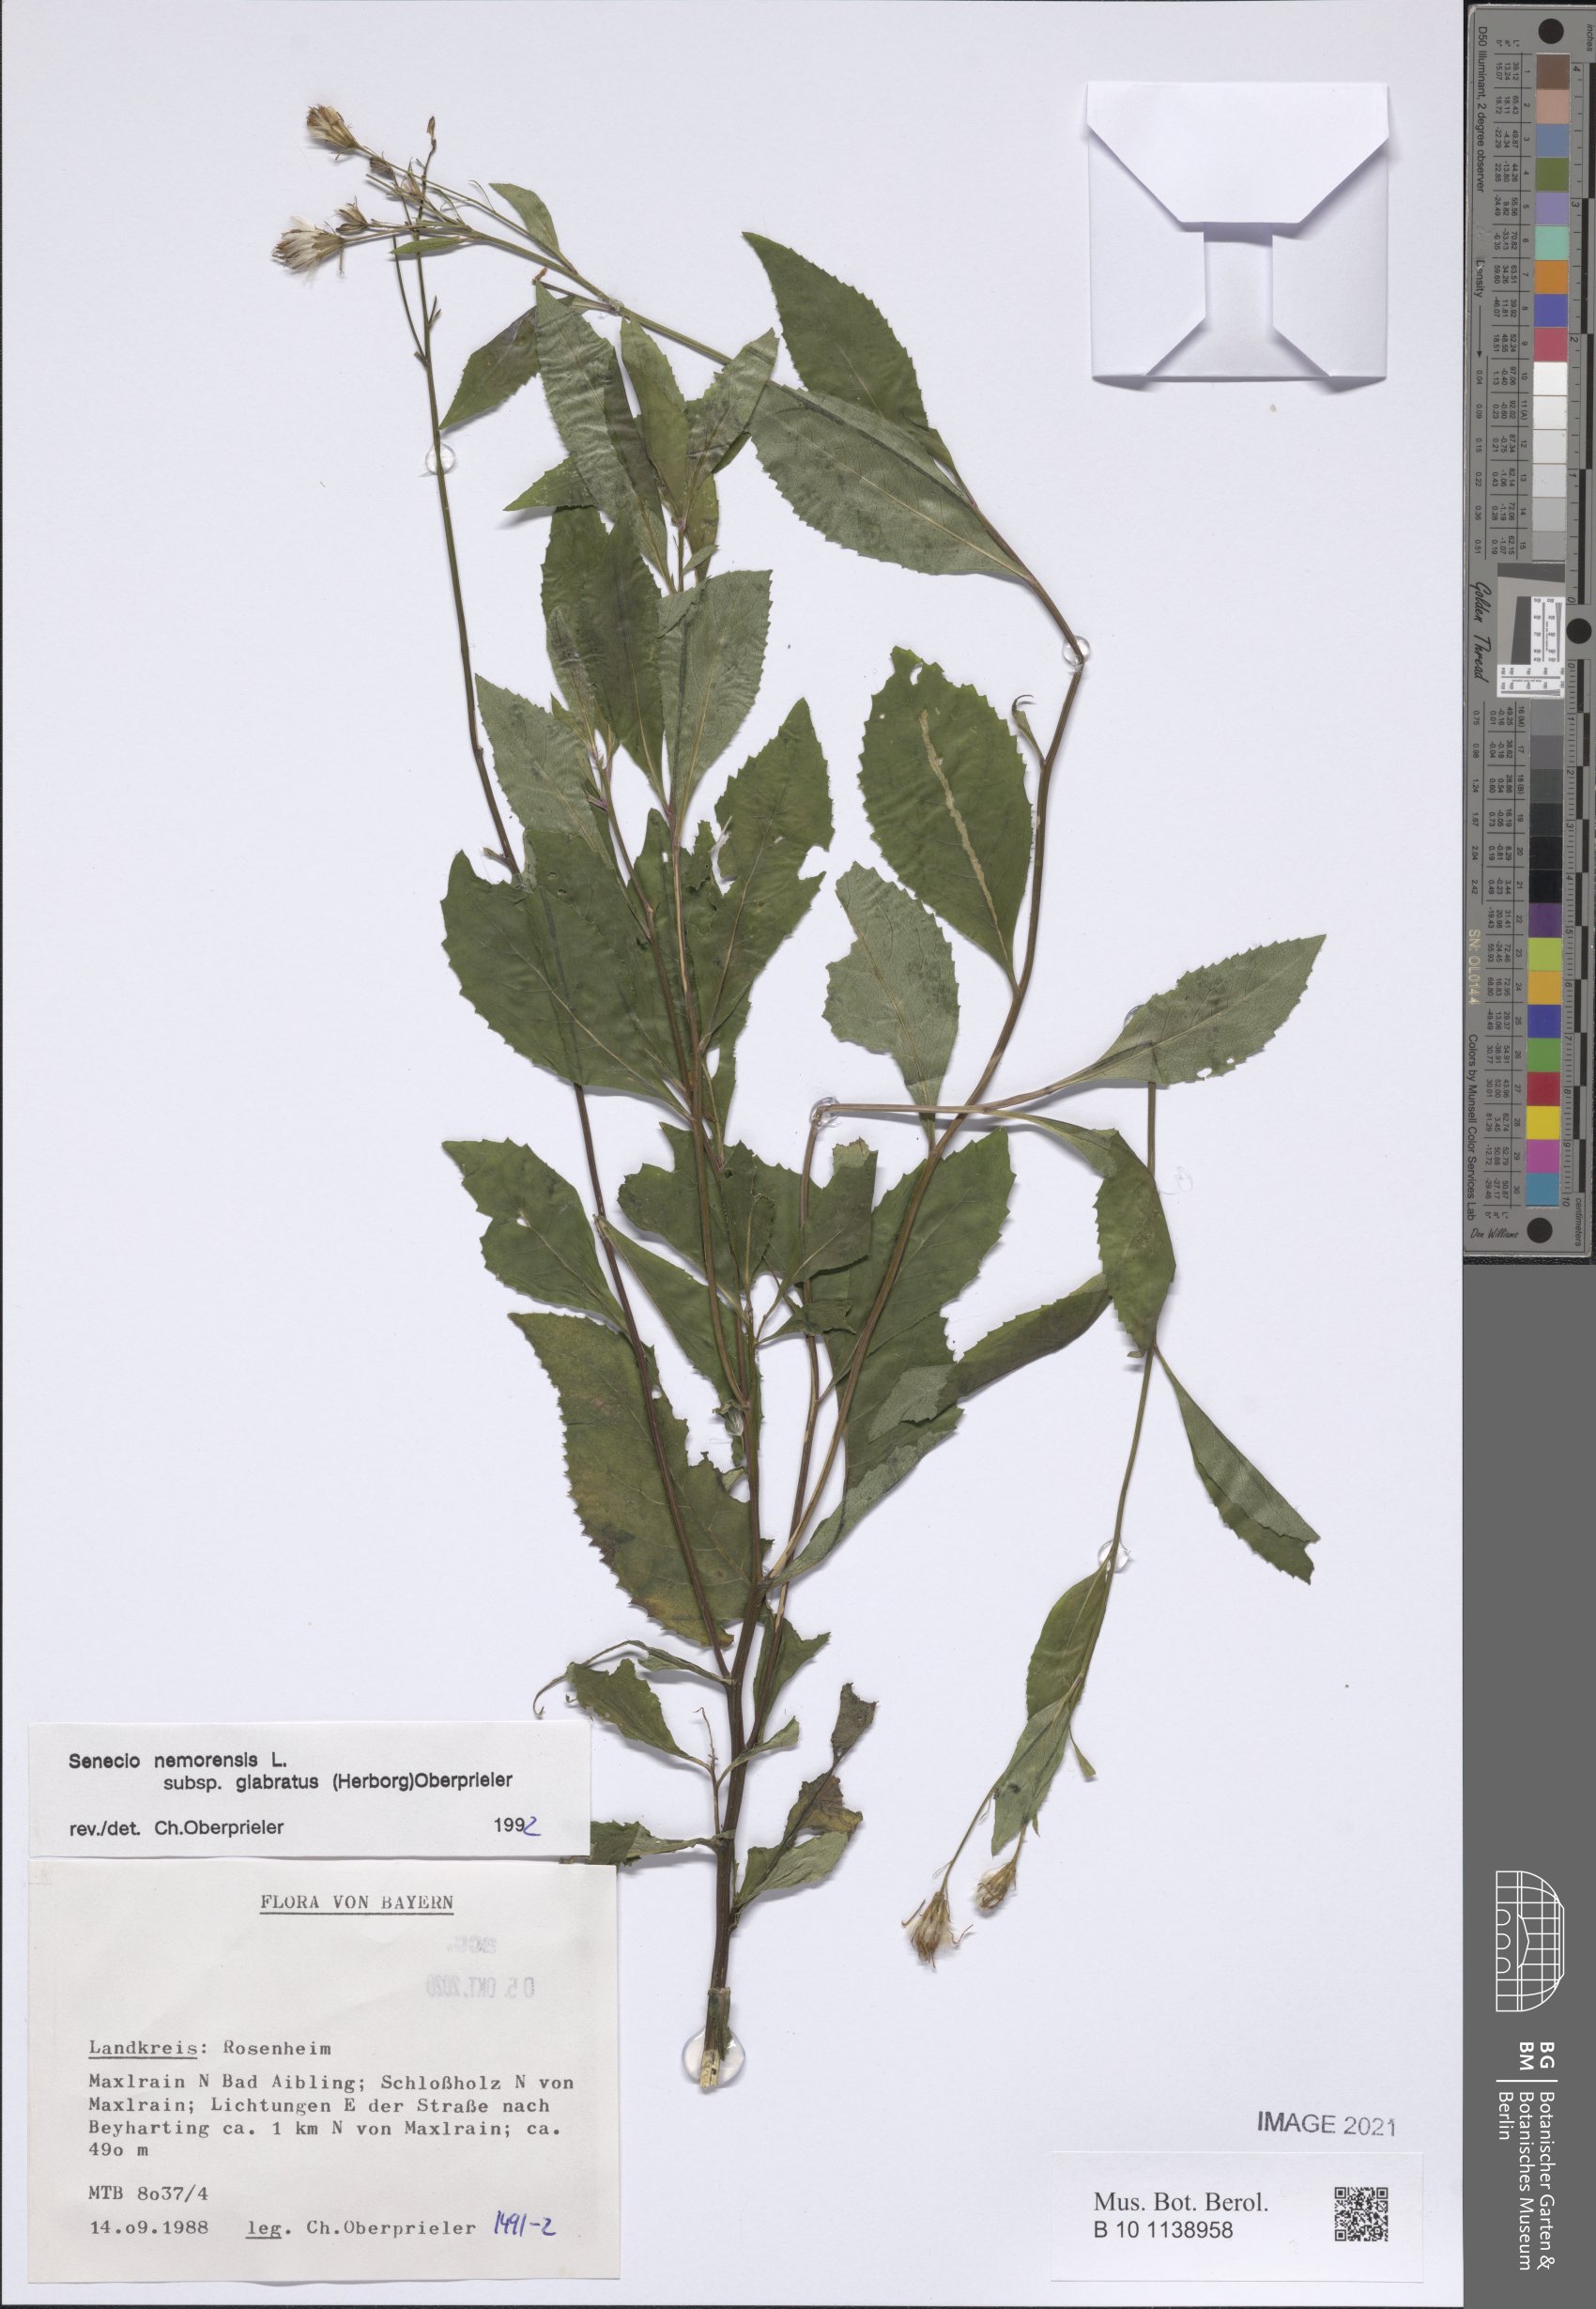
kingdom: Plantae
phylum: Tracheophyta
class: Magnoliopsida
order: Asterales
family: Asteraceae
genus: Senecio
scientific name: Senecio germanicus
